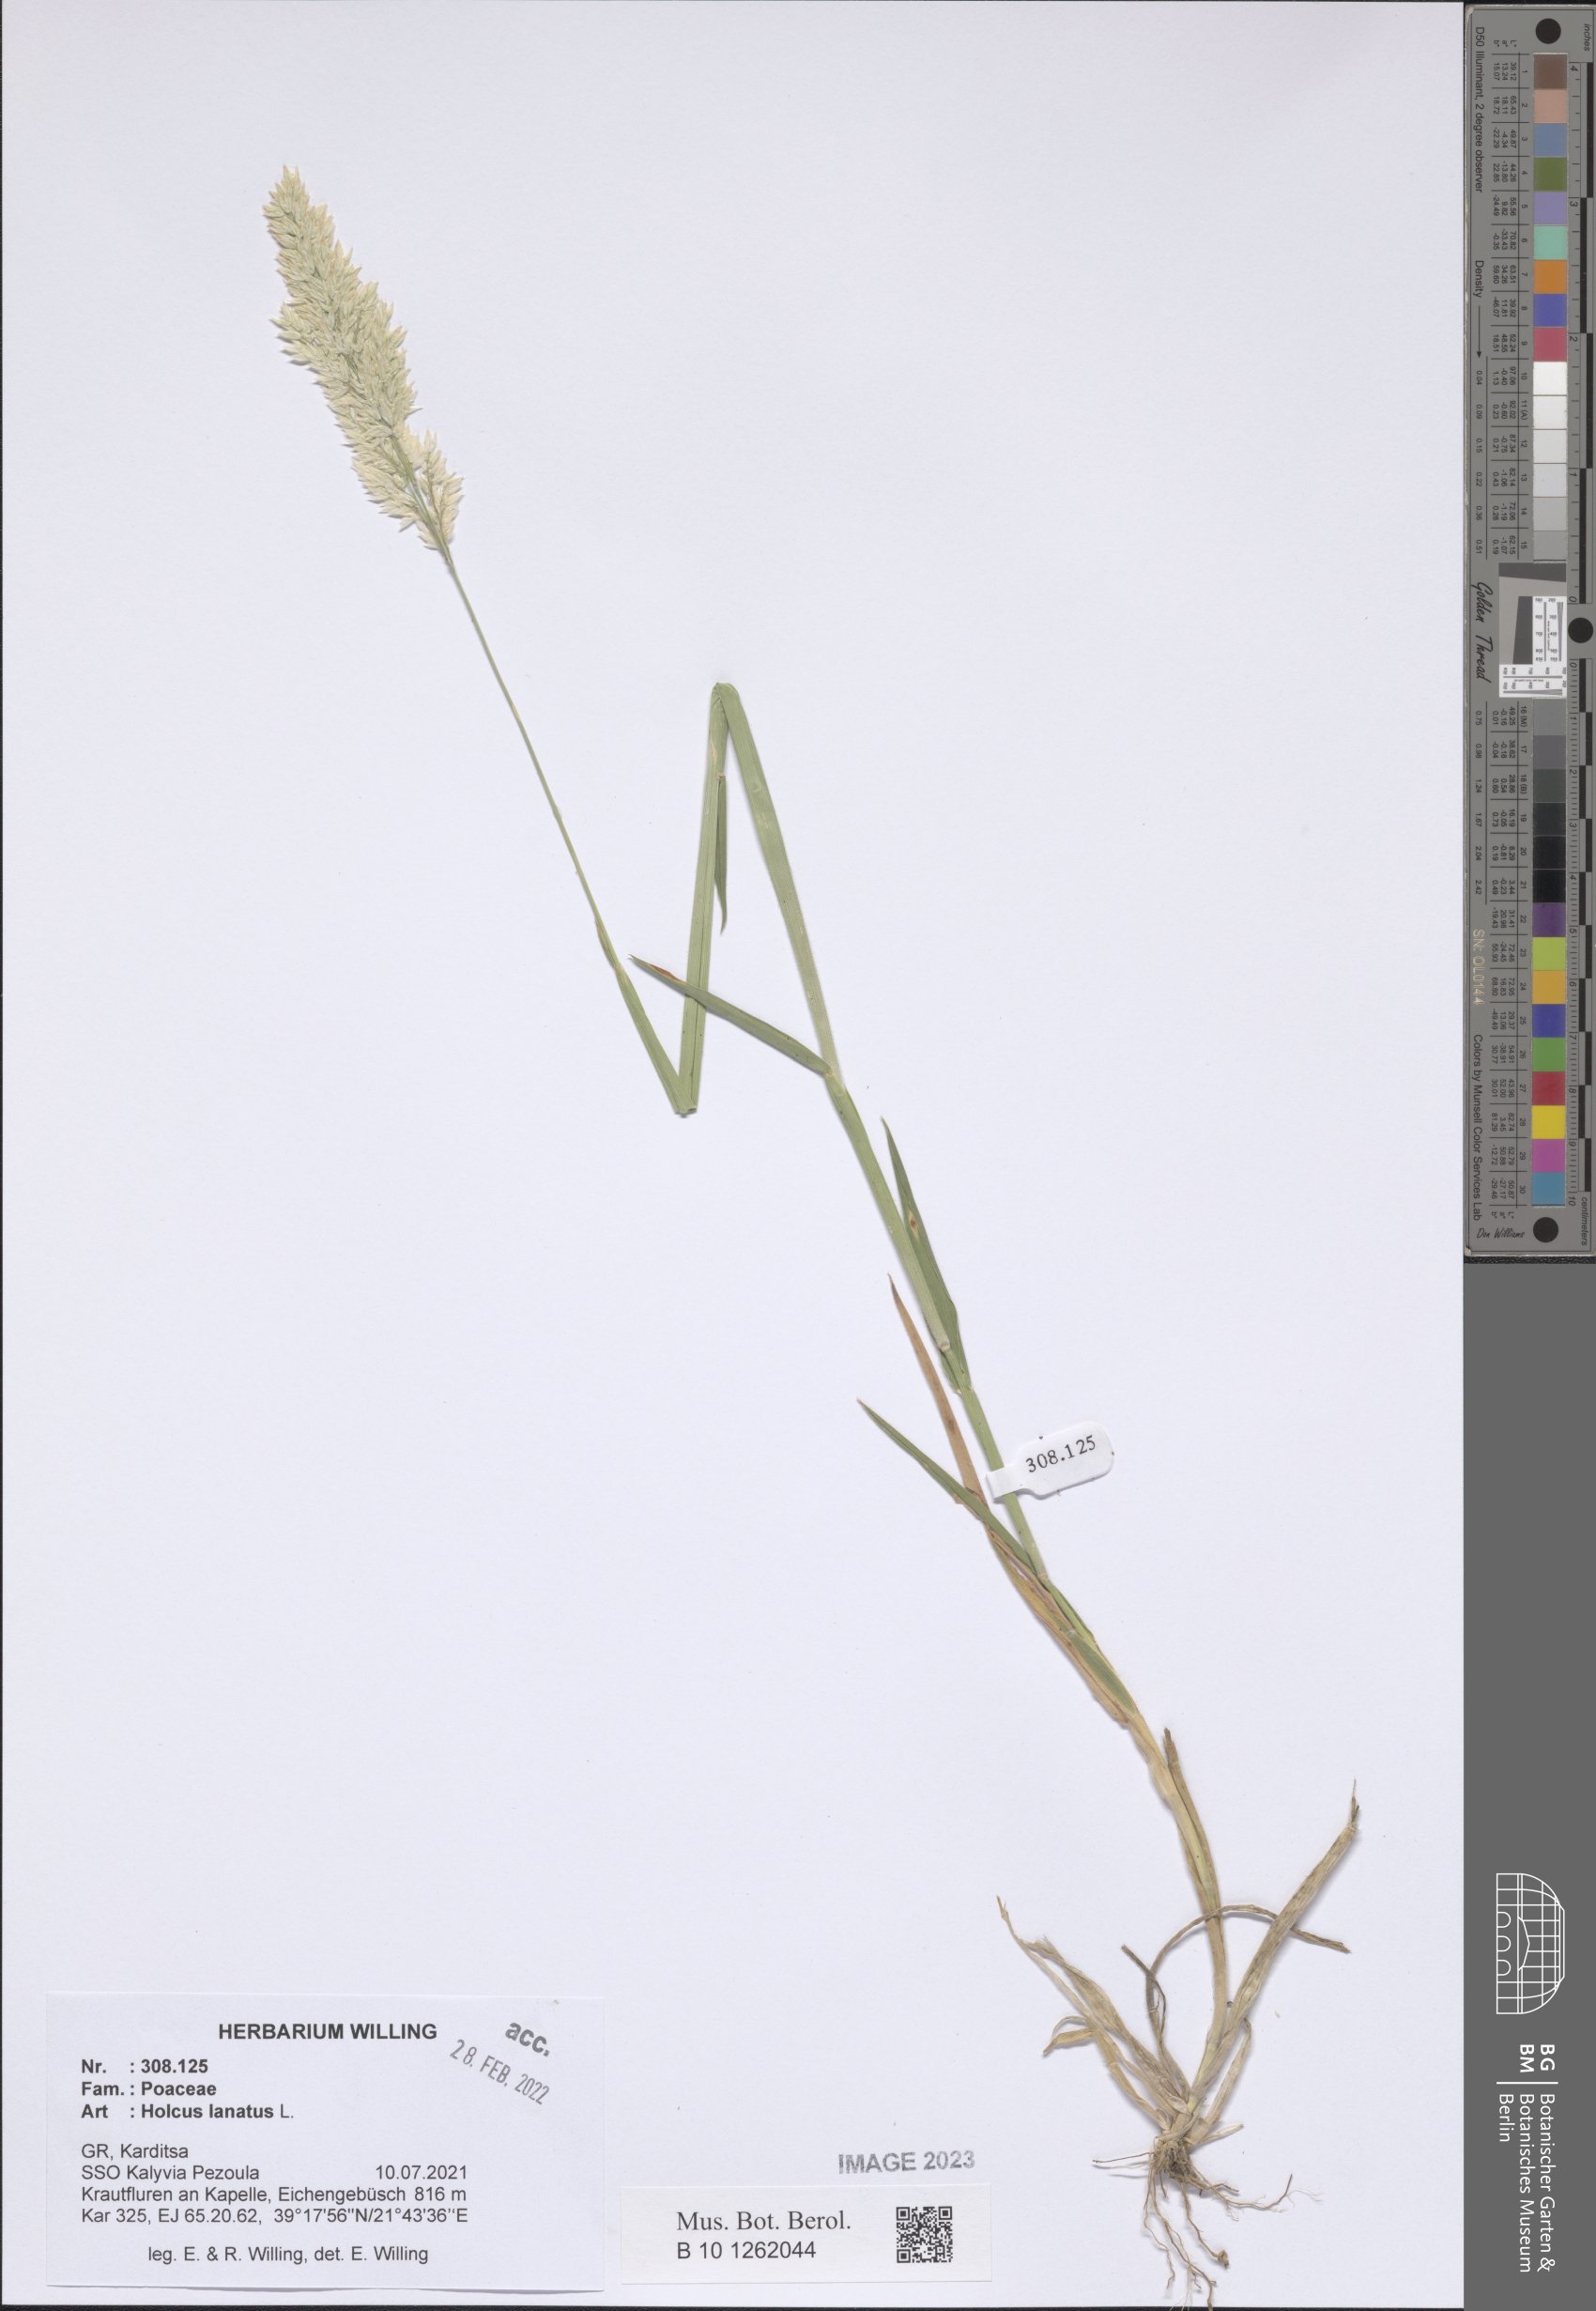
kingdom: Plantae
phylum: Tracheophyta
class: Liliopsida
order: Poales
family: Poaceae
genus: Holcus
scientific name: Holcus lanatus
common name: Yorkshire-fog
